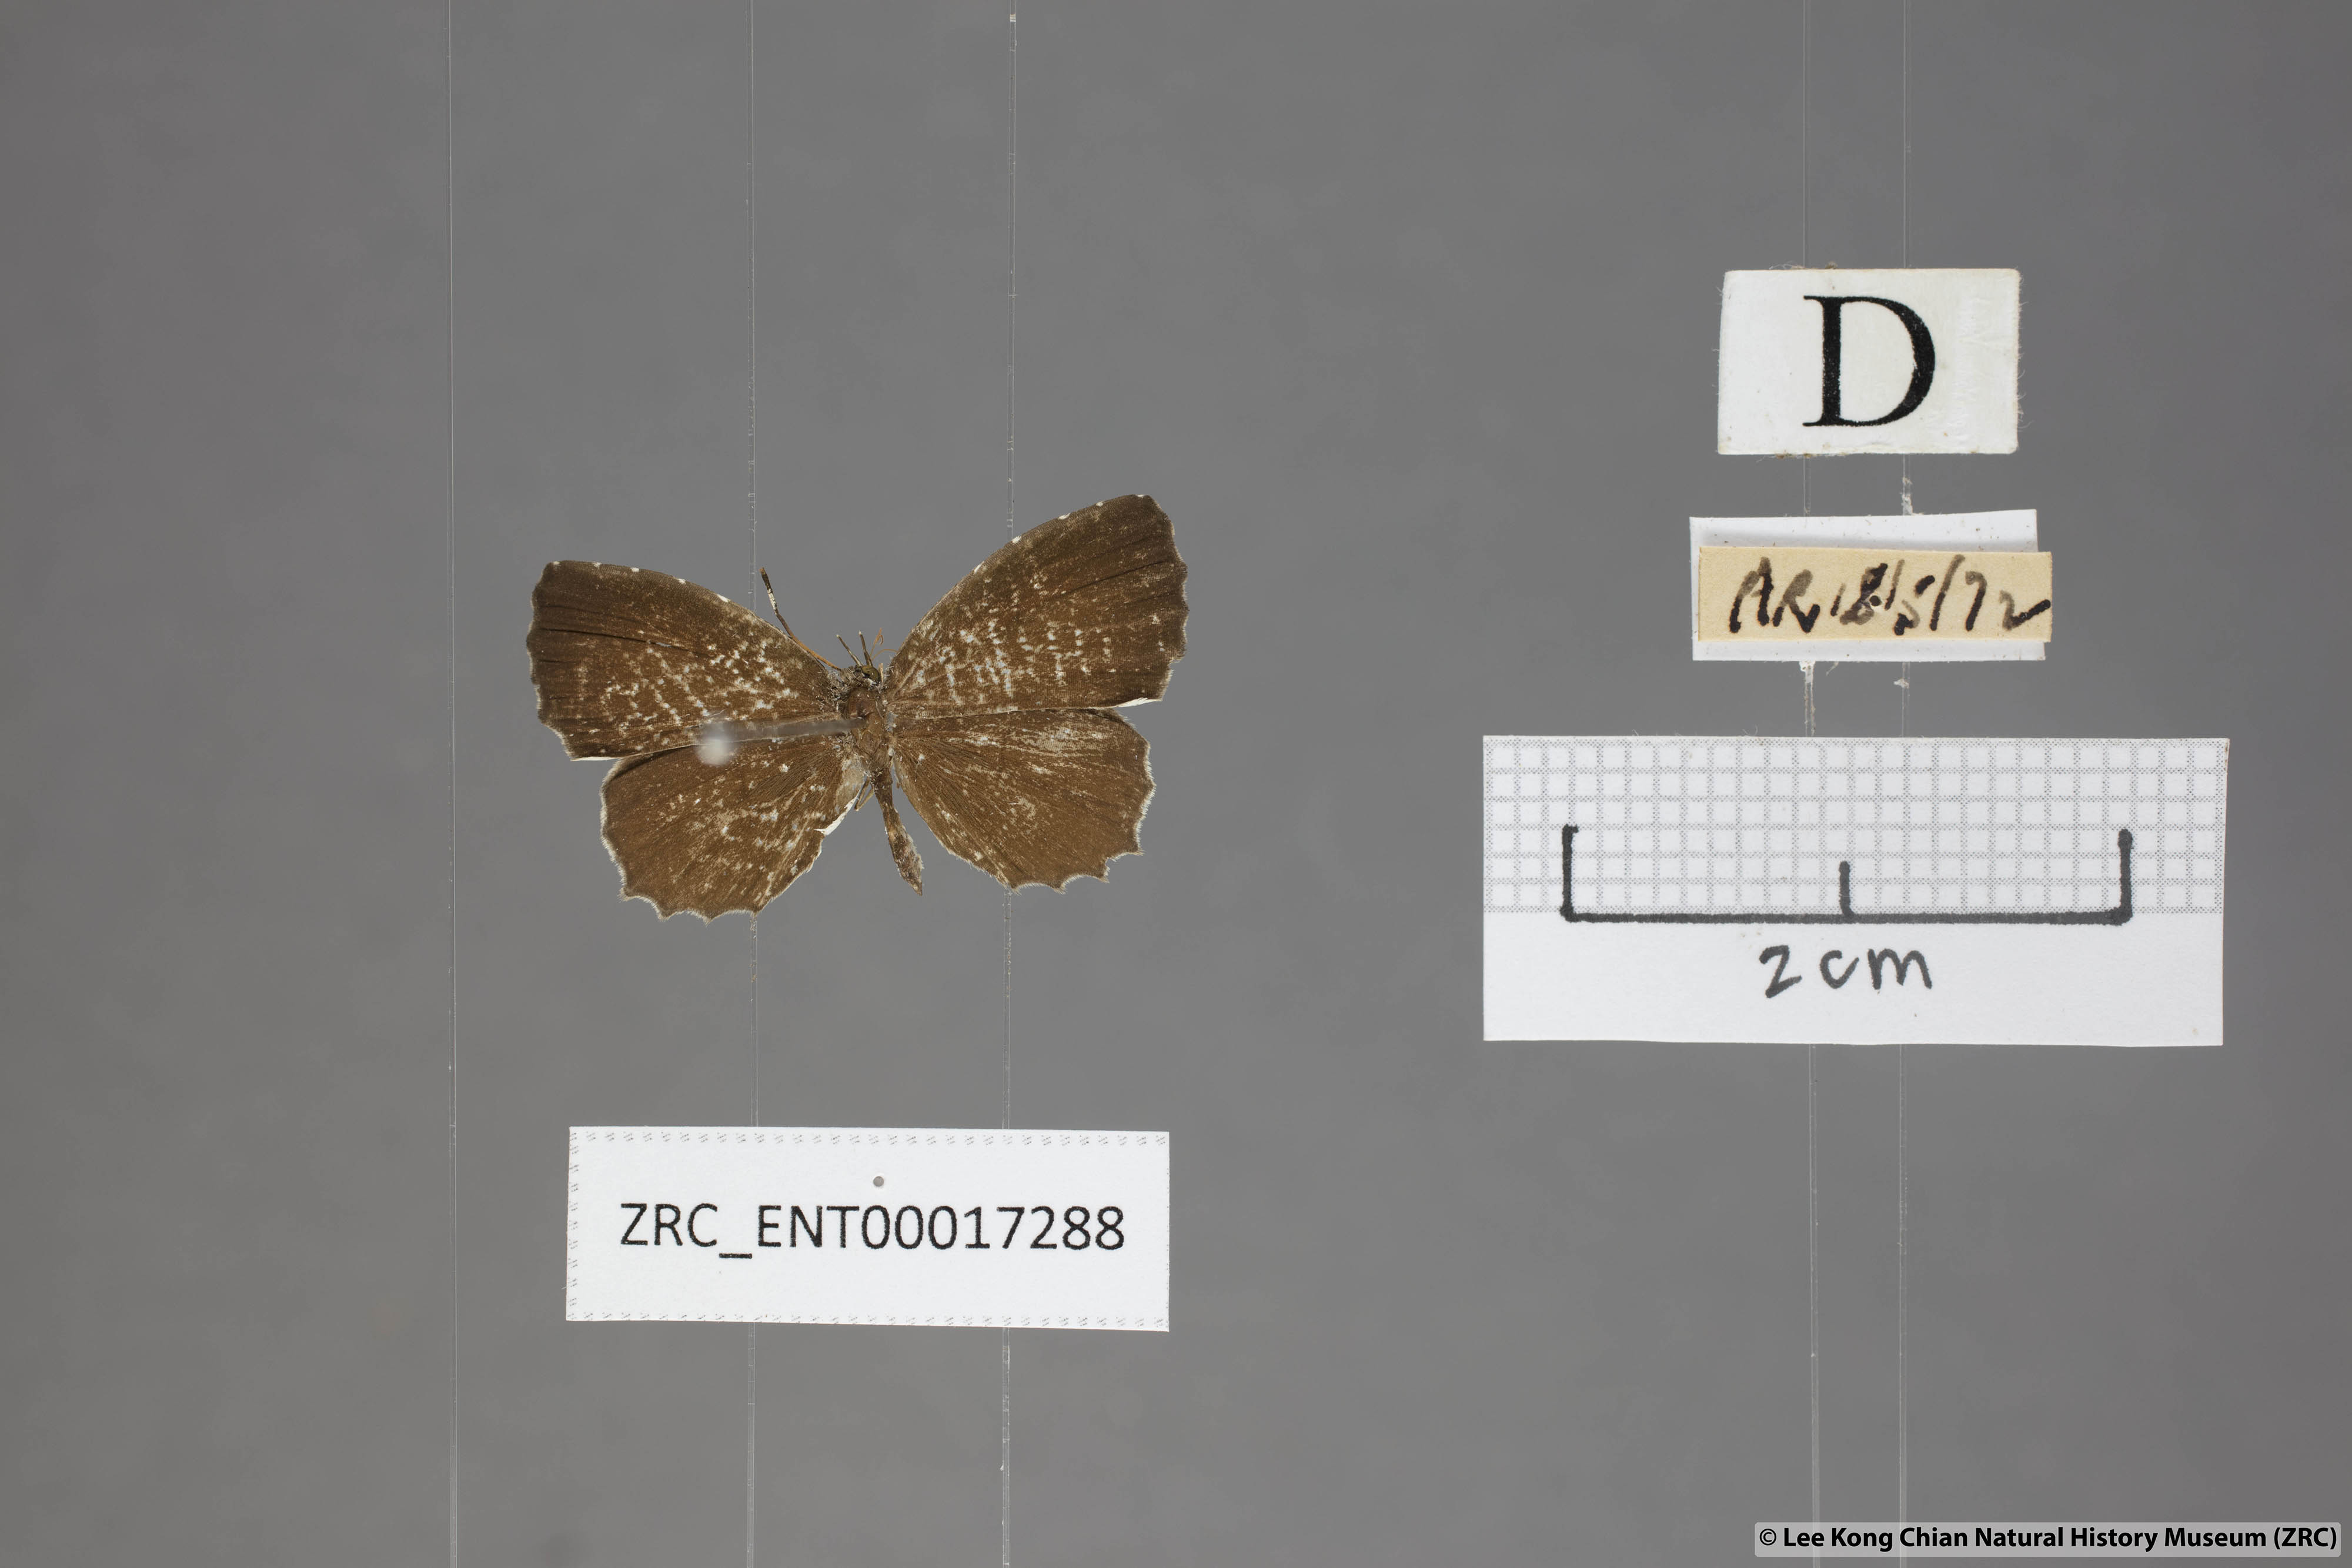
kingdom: Animalia
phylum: Arthropoda
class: Insecta
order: Lepidoptera
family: Lycaenidae
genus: Allotinus
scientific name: Allotinus substrigosa
